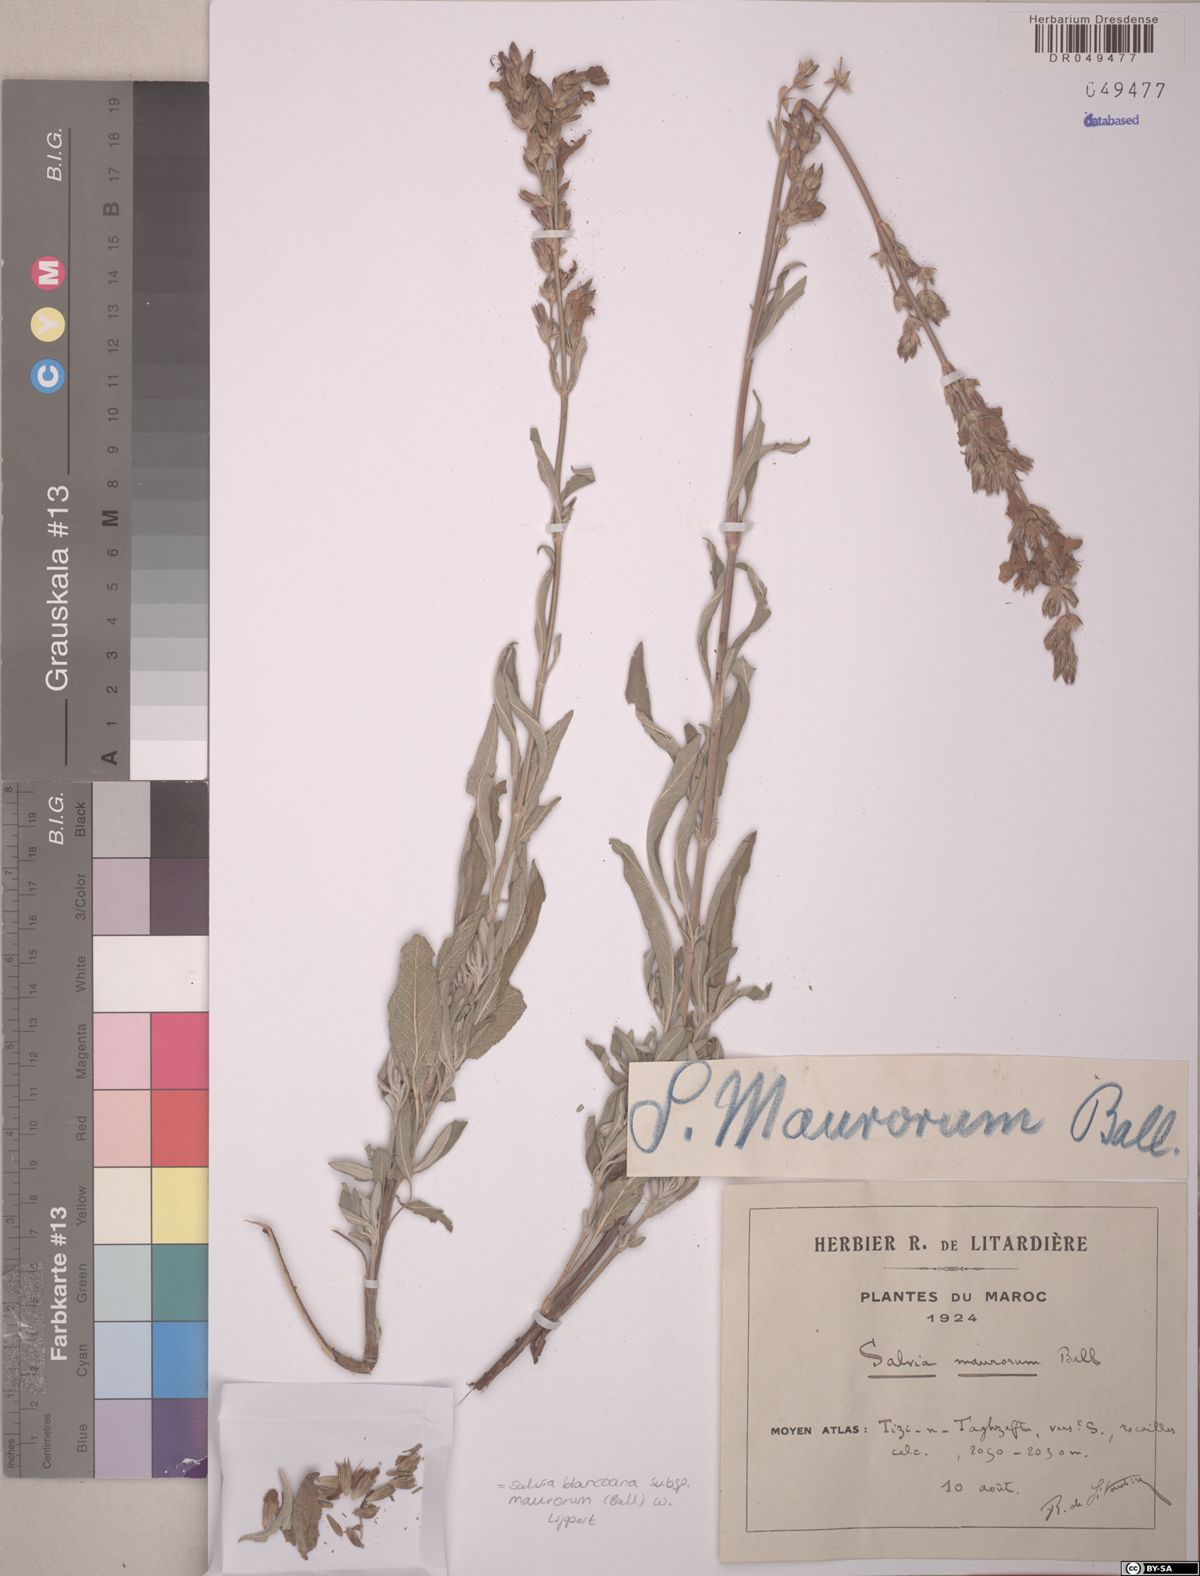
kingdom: Plantae
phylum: Tracheophyta
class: Magnoliopsida
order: Lamiales
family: Lamiaceae
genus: Salvia
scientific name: Salvia blancoana
